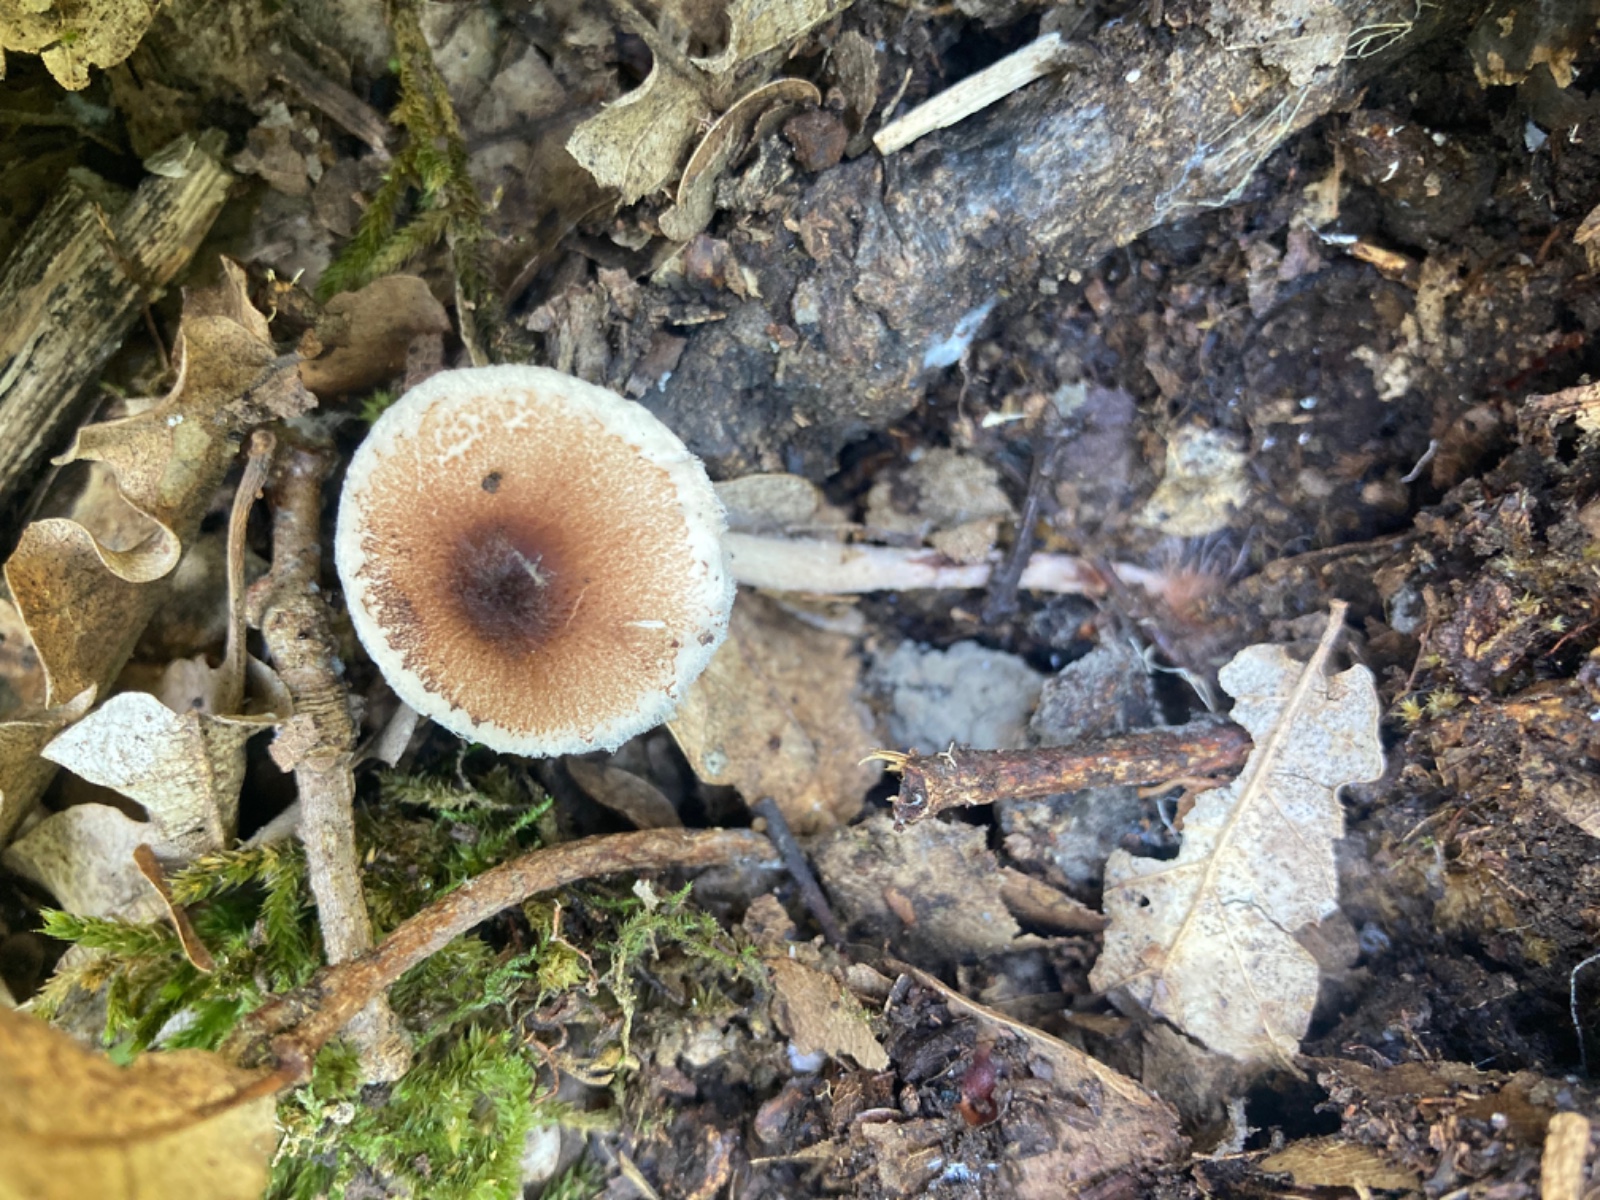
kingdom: Fungi
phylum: Basidiomycota
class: Agaricomycetes
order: Agaricales
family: Agaricaceae
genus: Lepiota
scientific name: Lepiota echinella
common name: finskællet parasolhat
